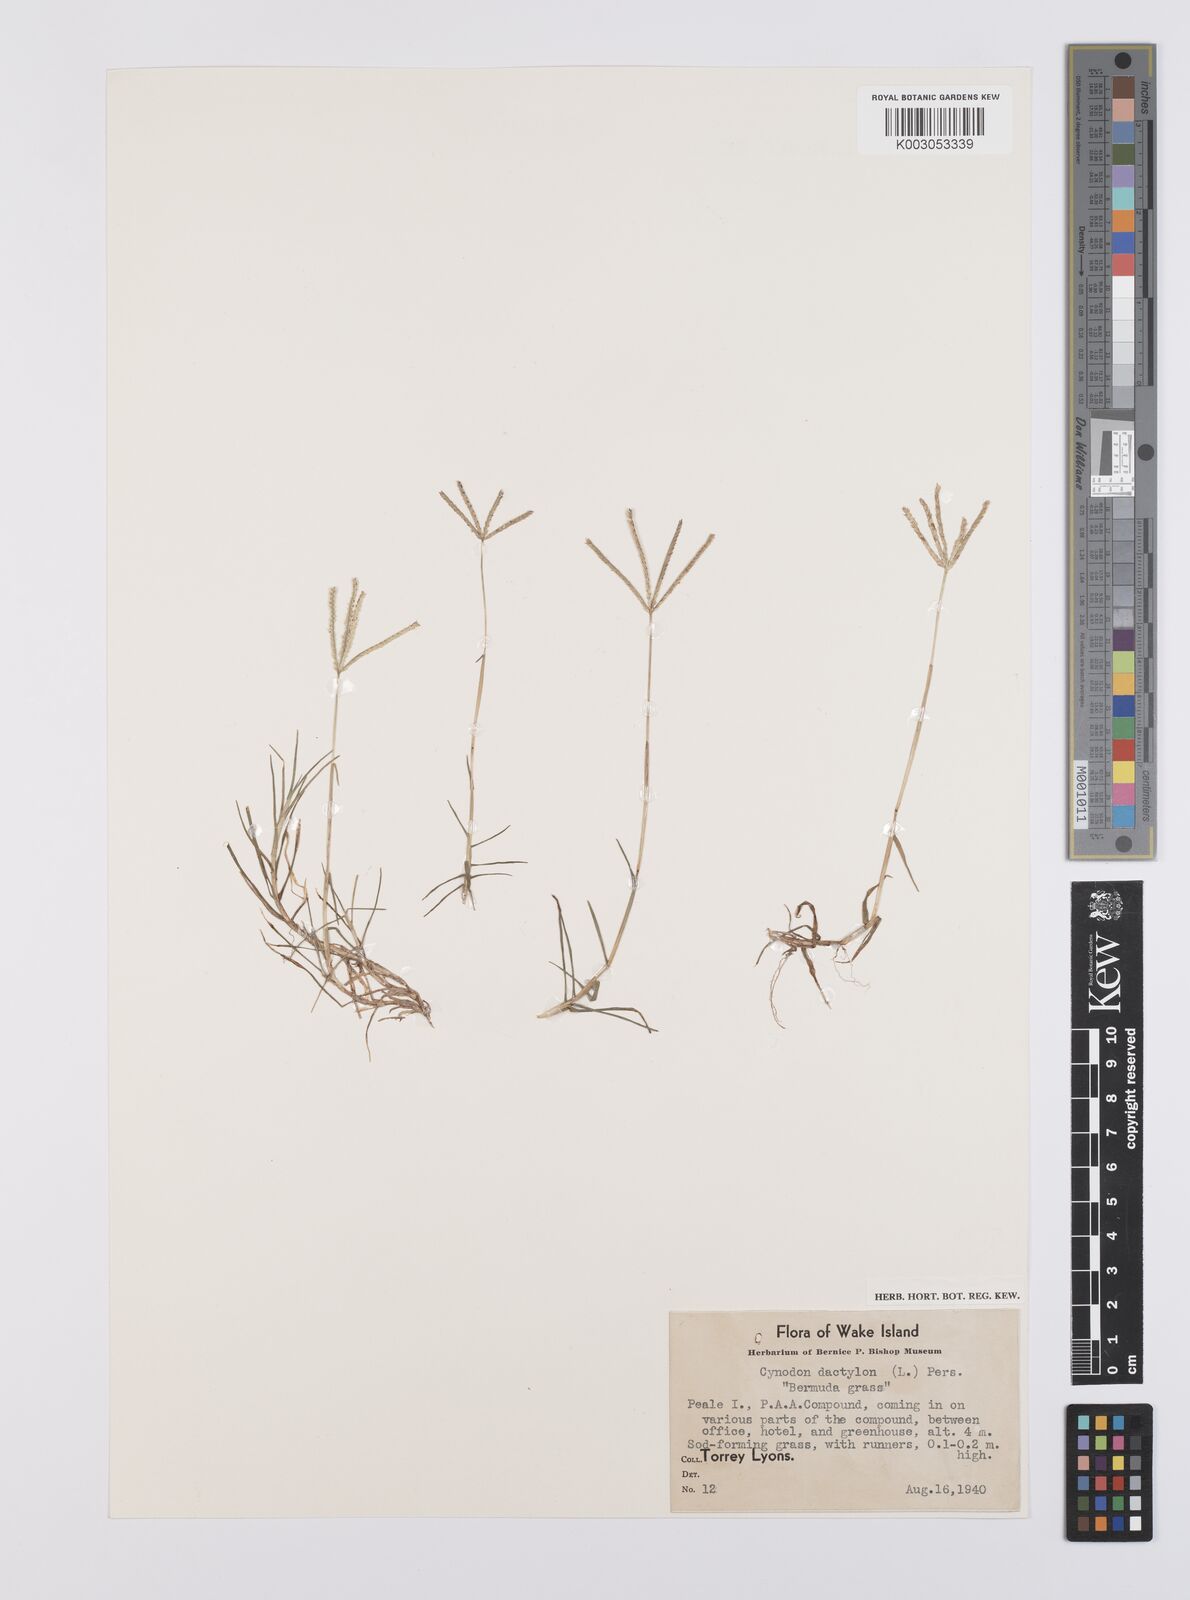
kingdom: Plantae
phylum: Tracheophyta
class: Liliopsida
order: Poales
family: Poaceae
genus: Cynodon
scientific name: Cynodon dactylon
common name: Bermuda grass
